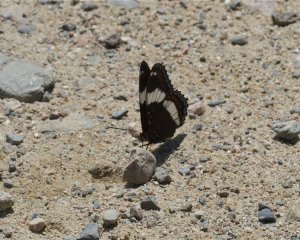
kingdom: Animalia
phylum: Arthropoda
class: Insecta
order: Lepidoptera
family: Nymphalidae
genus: Limenitis
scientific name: Limenitis arthemis
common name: Red-spotted Admiral
